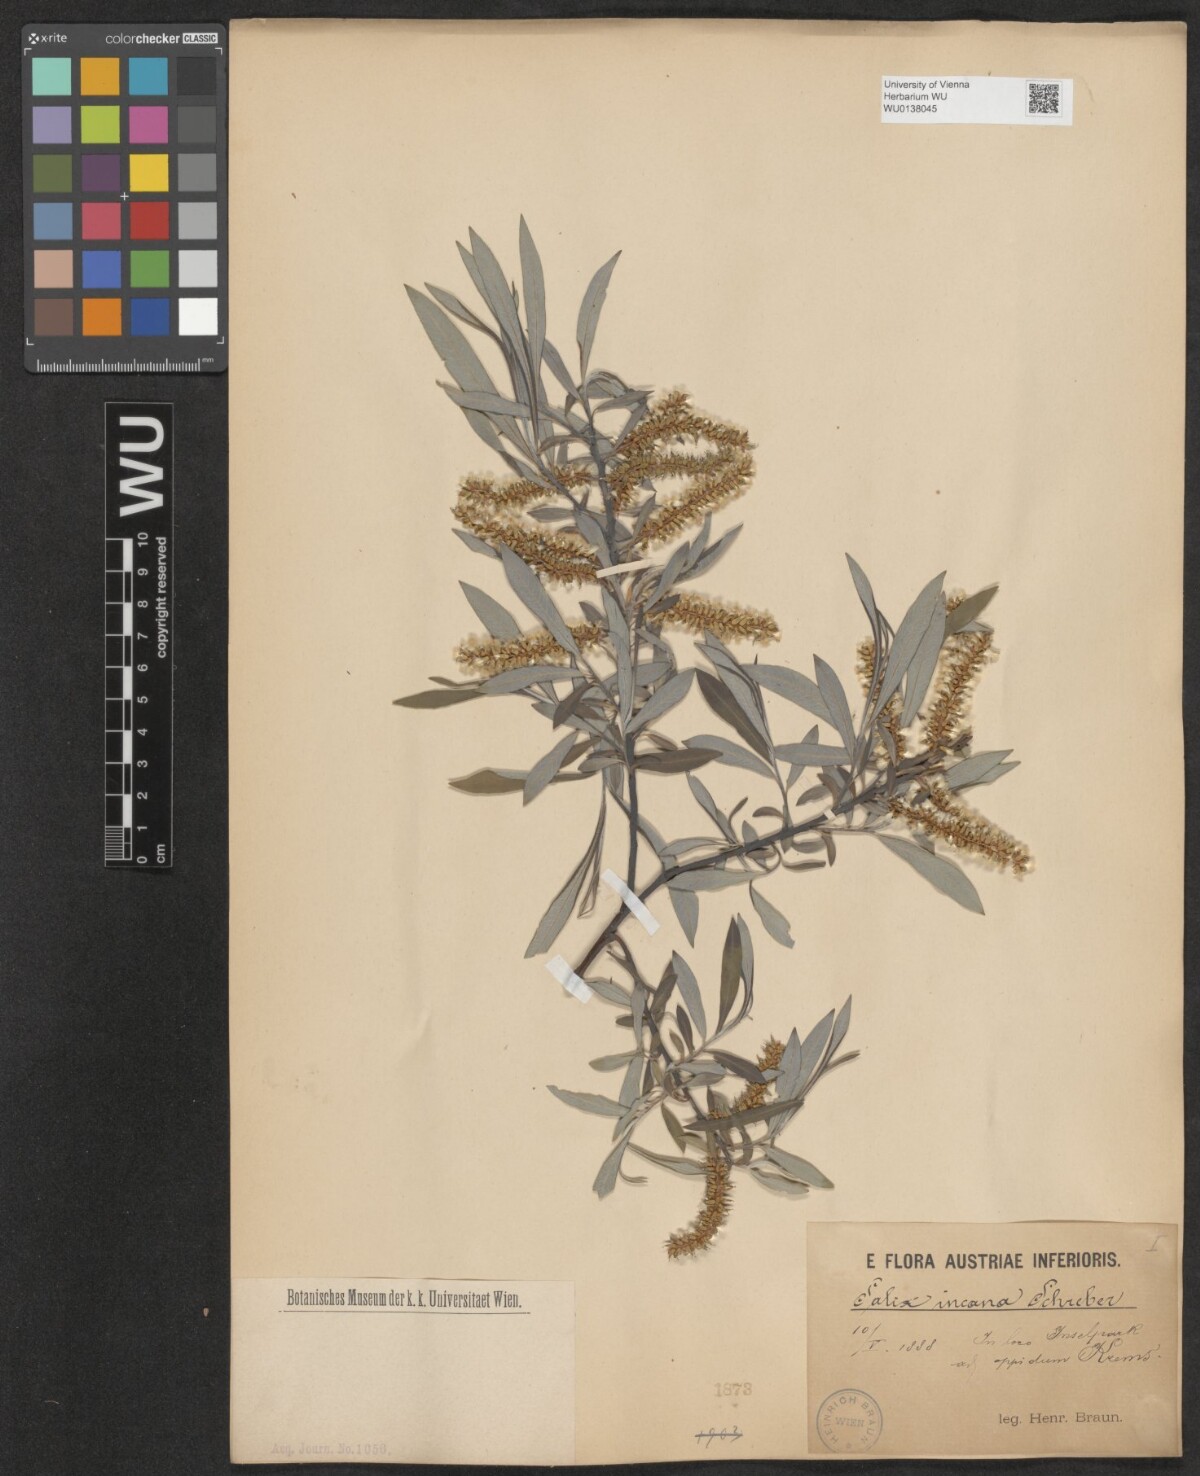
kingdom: Plantae
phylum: Tracheophyta
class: Magnoliopsida
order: Malpighiales
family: Salicaceae
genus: Salix
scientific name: Salix eleagnos
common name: Elaeagnus willow
